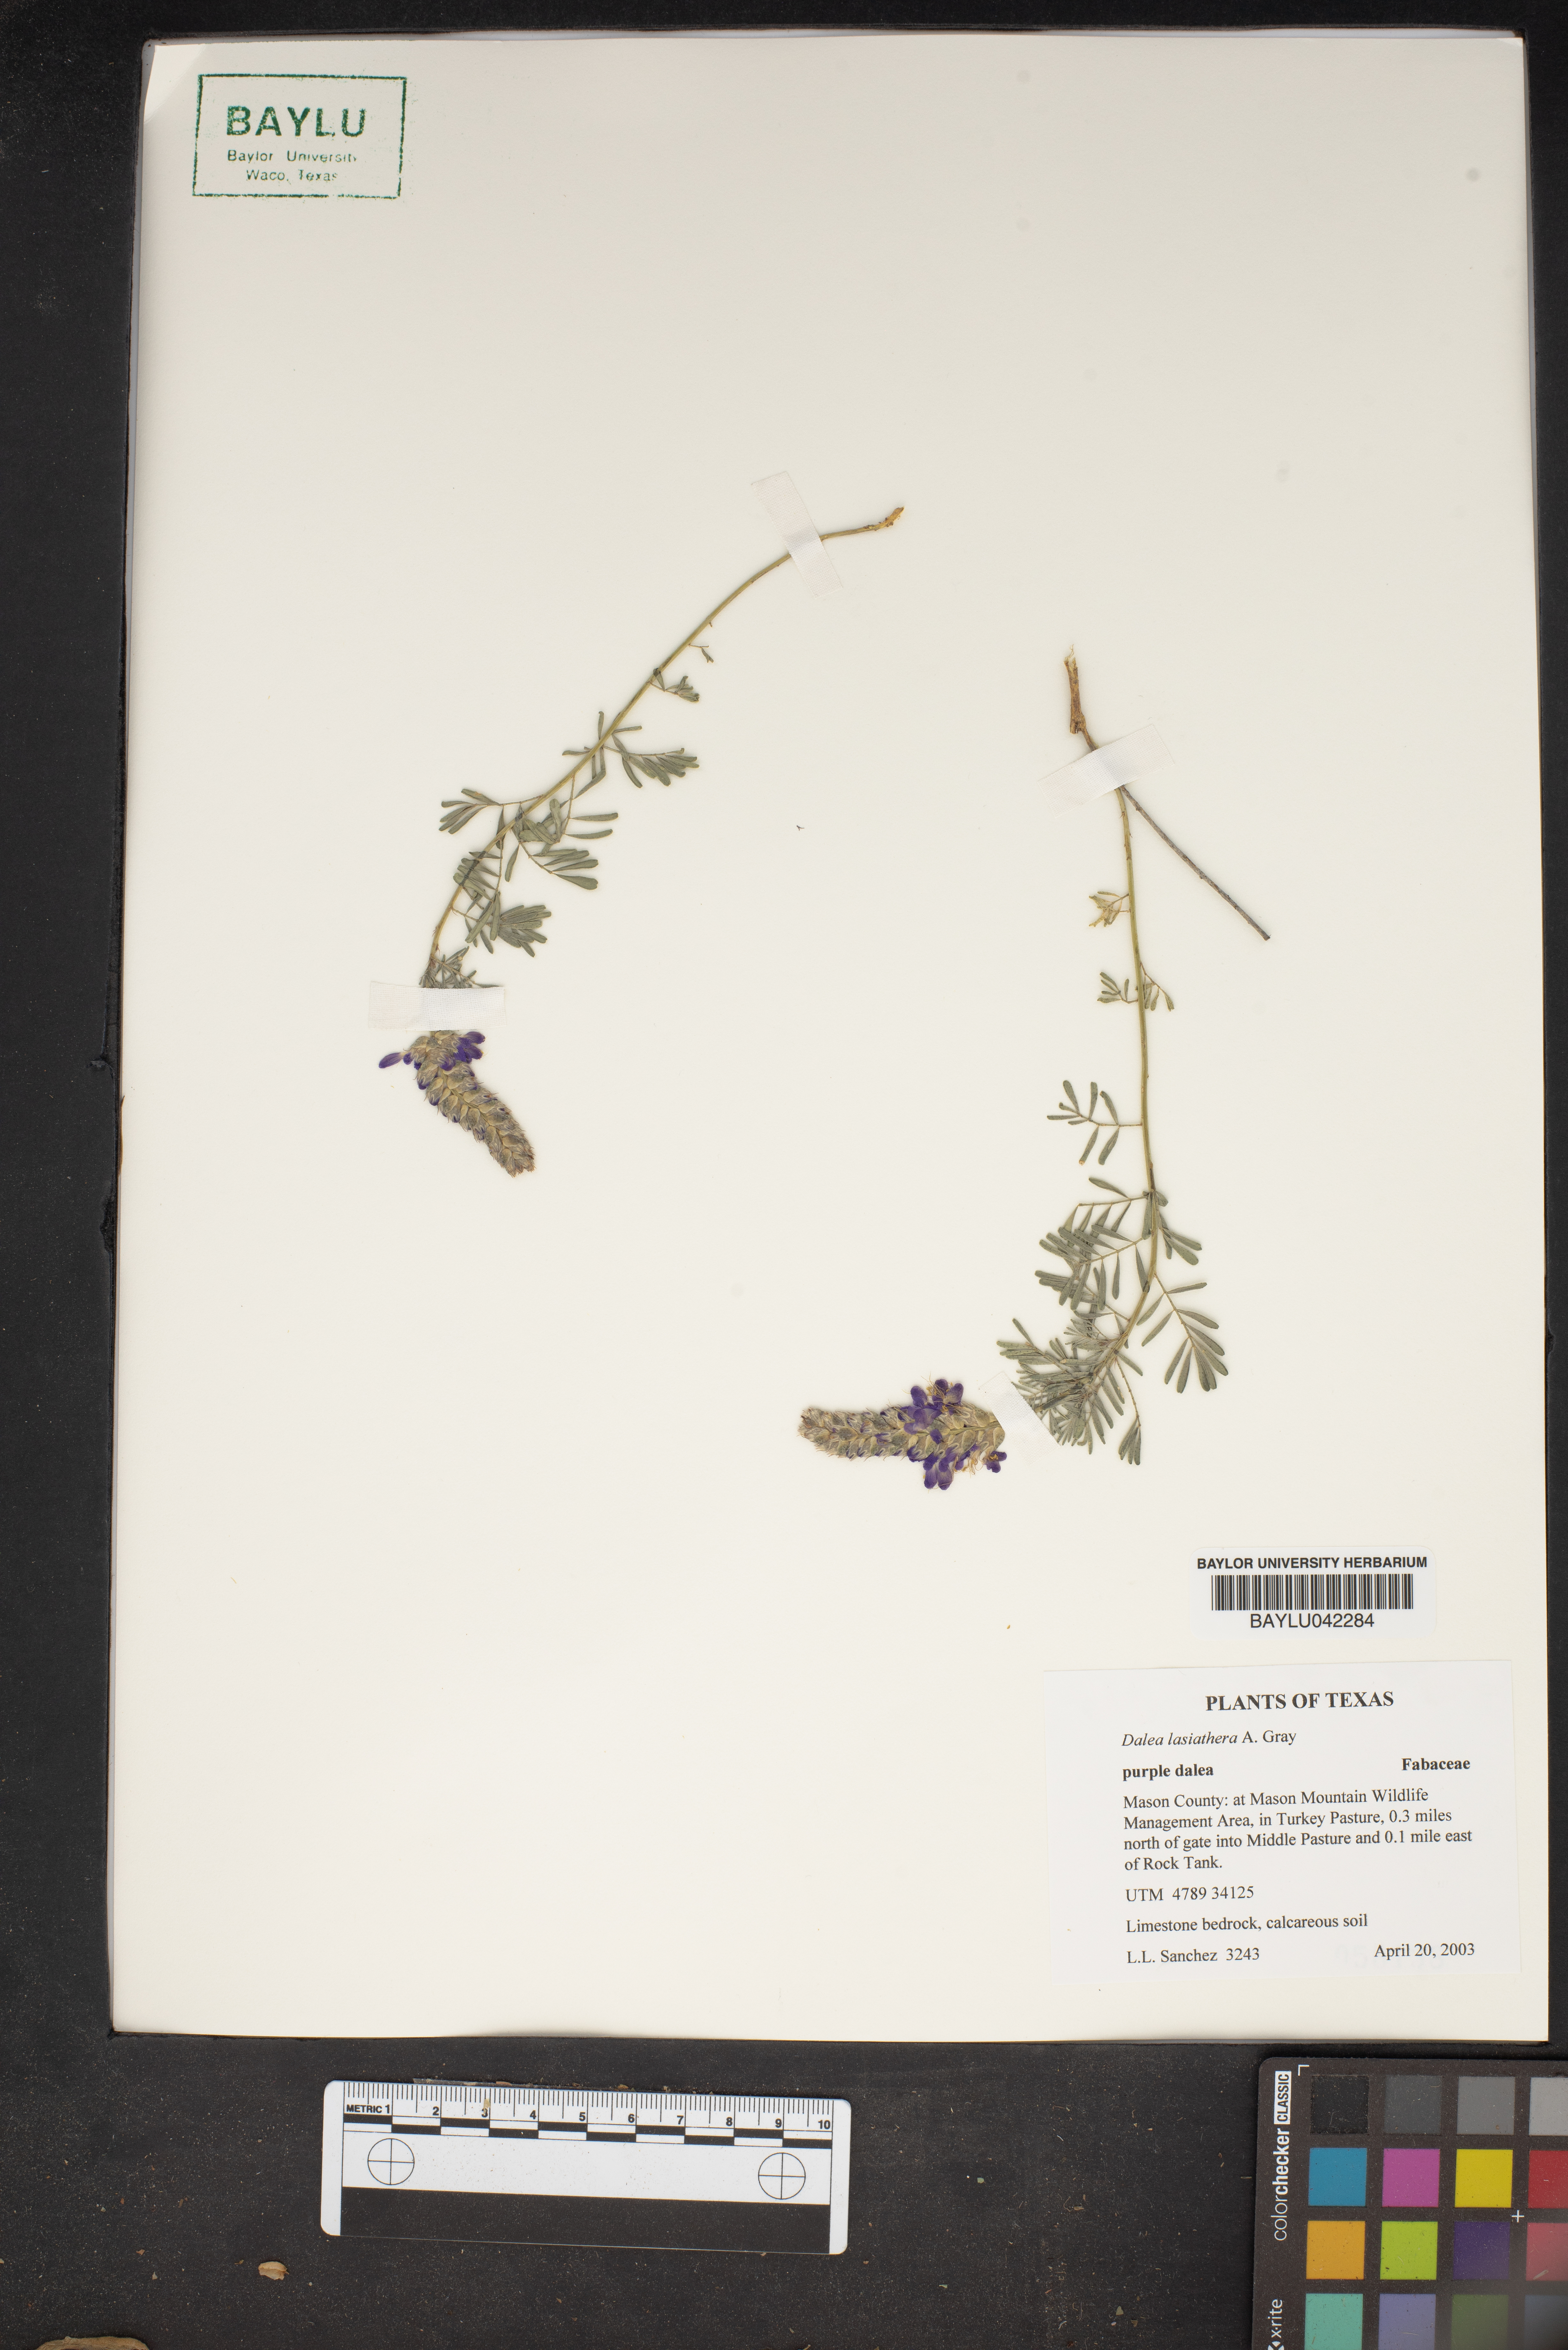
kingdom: Plantae
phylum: Tracheophyta
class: Magnoliopsida
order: Fabales
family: Fabaceae
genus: Dalea
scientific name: Dalea lasiathera
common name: Purple prairie-clover
